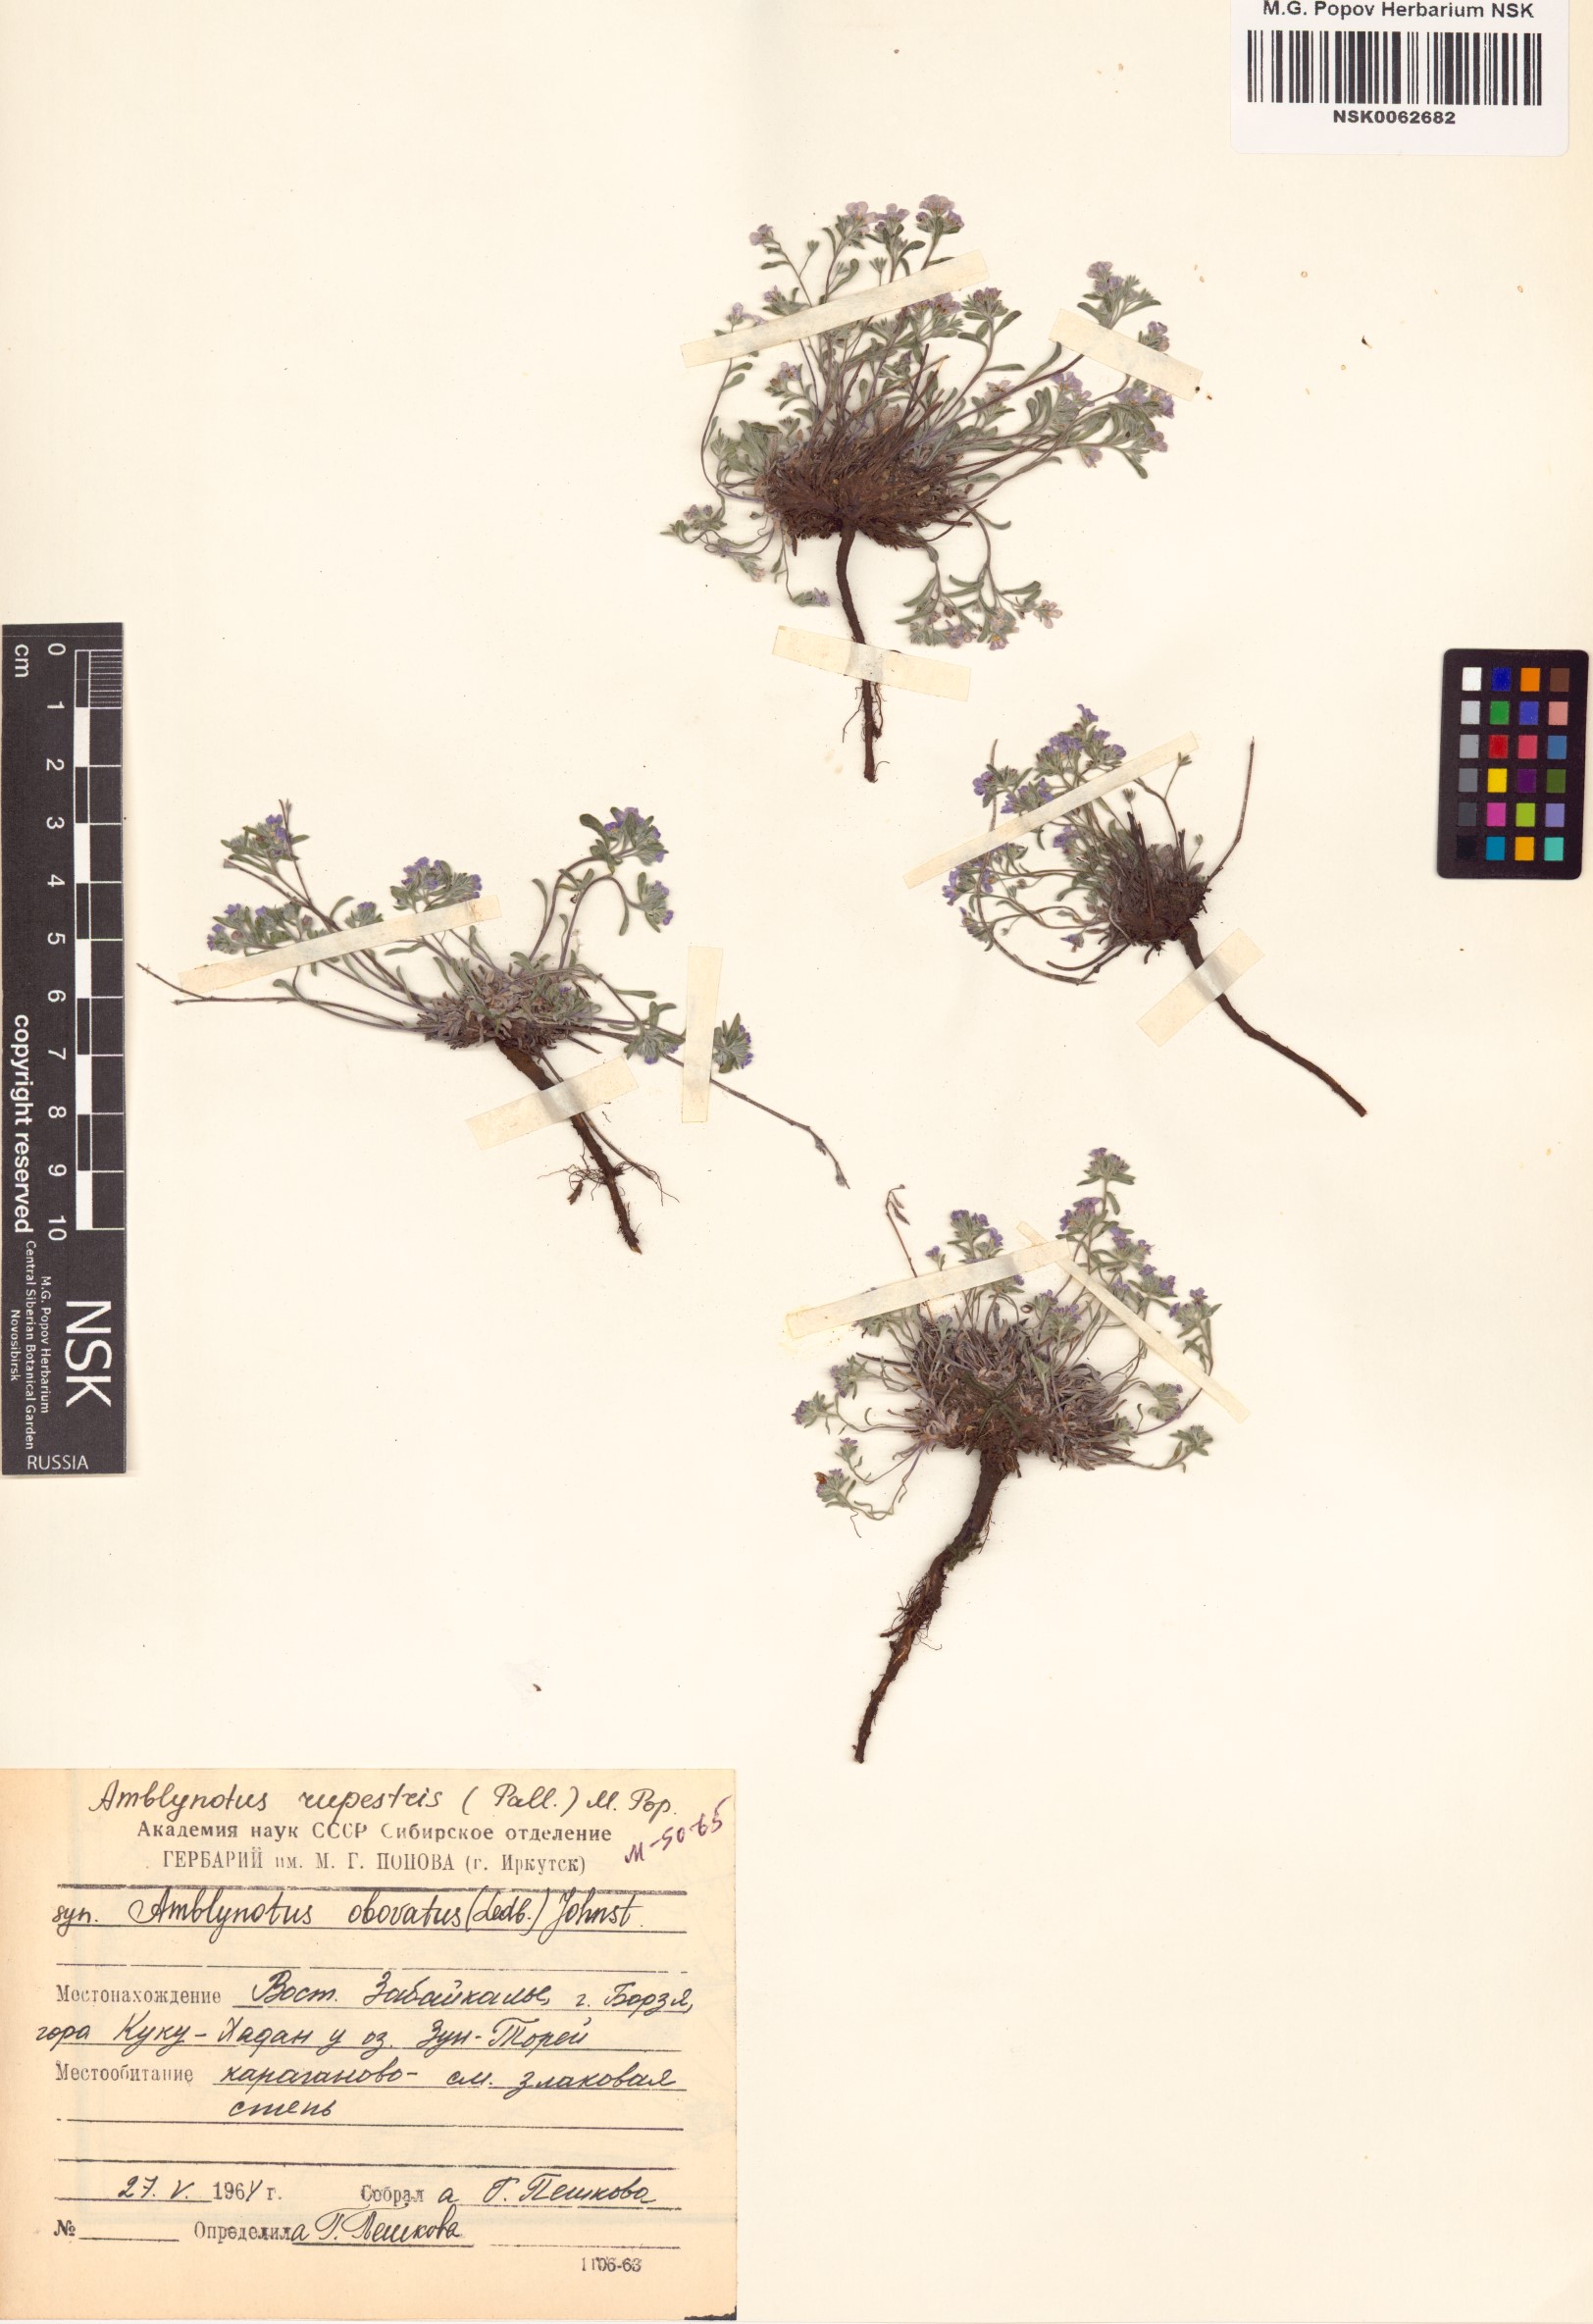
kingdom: Plantae
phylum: Tracheophyta
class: Magnoliopsida
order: Boraginales
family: Boraginaceae
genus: Eritrichium
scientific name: Eritrichium rupestre
